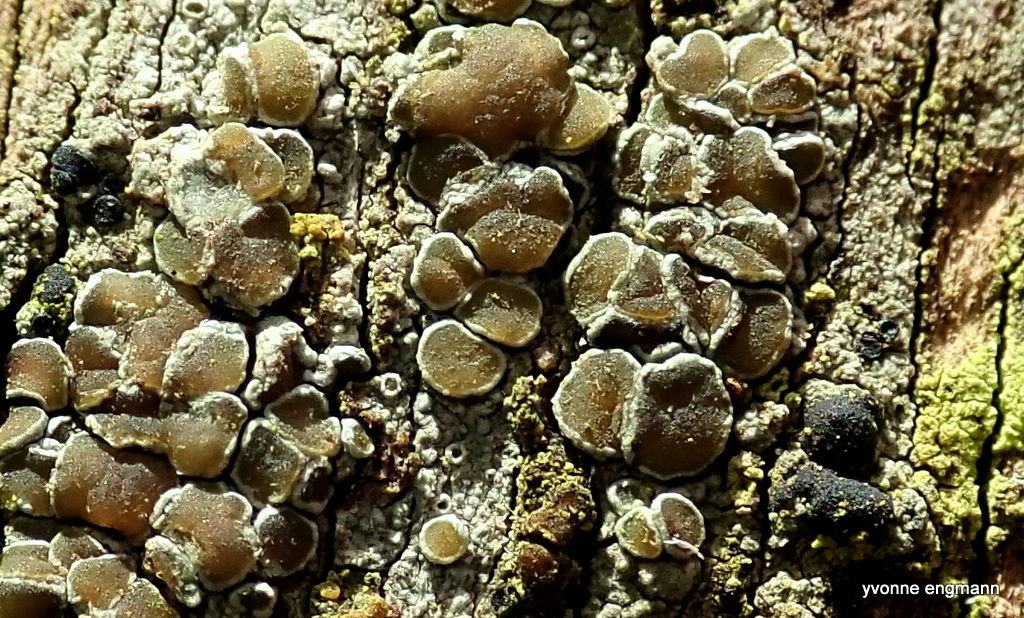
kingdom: Fungi
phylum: Ascomycota
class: Lecanoromycetes
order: Lecanorales
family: Lecanoraceae
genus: Lecanora
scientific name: Lecanora chlarotera
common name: brun kantskivelav
